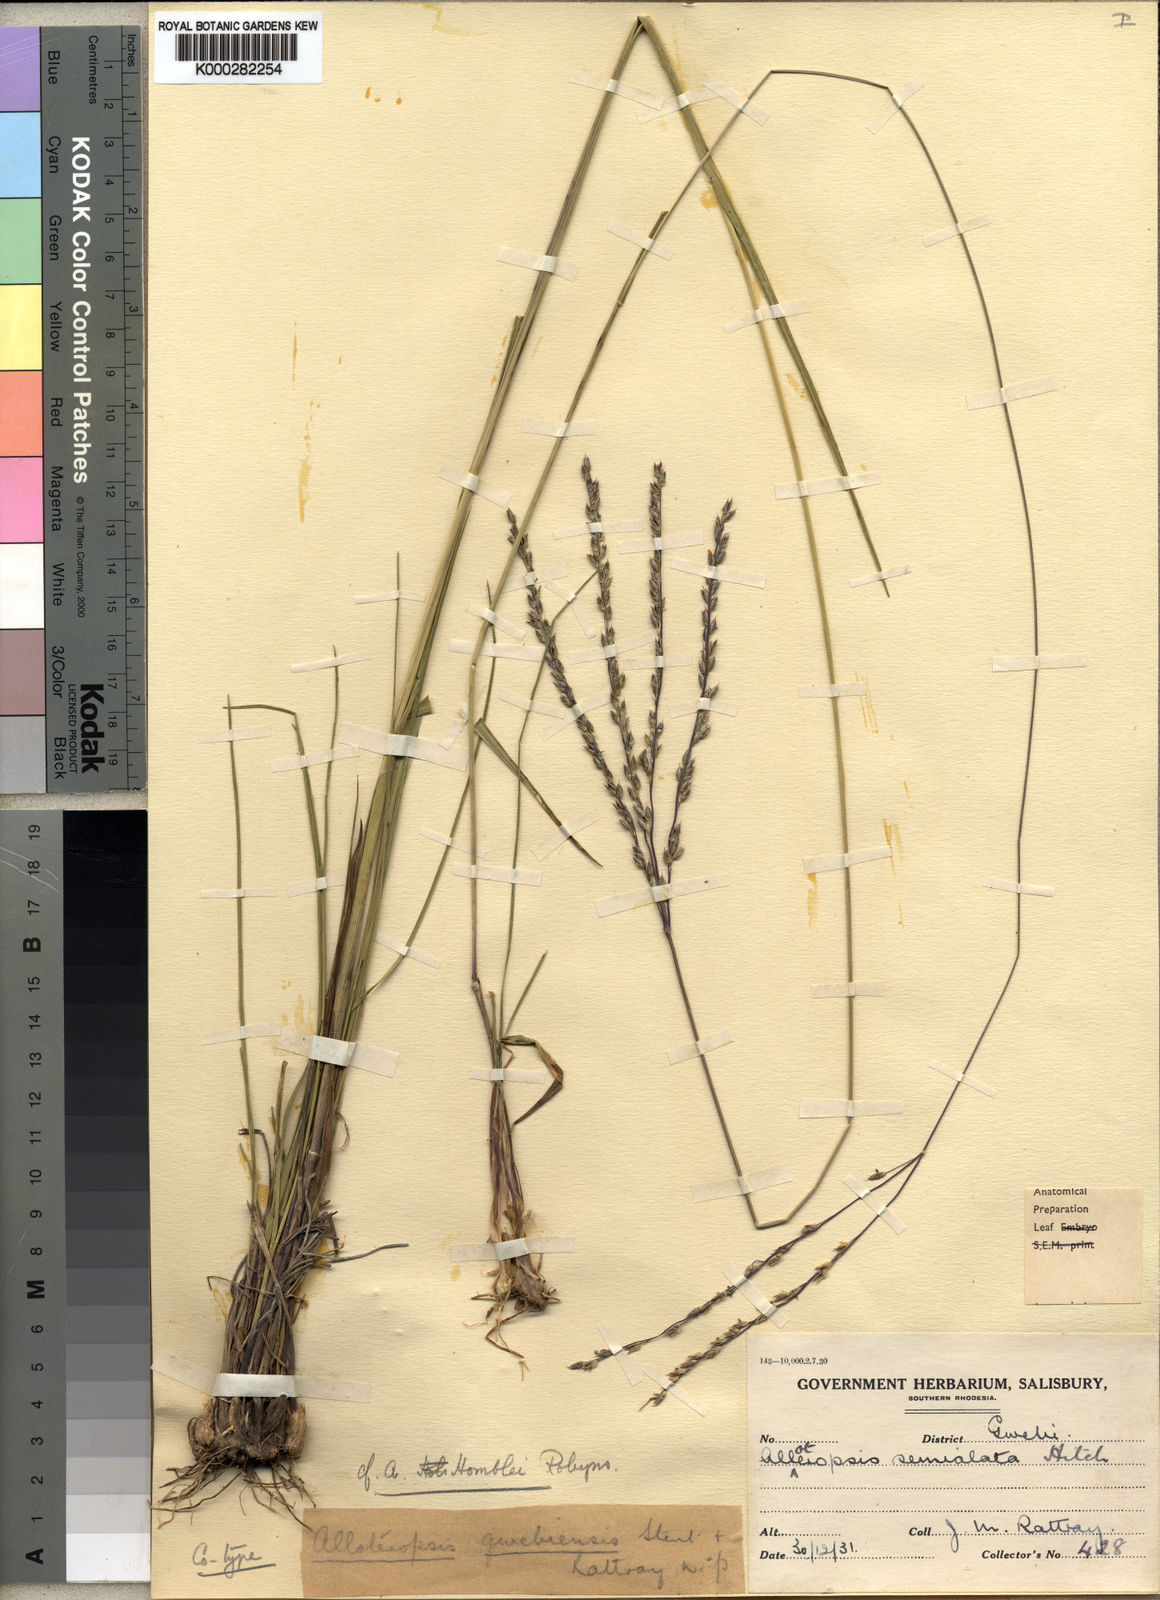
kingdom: Plantae
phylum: Tracheophyta
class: Liliopsida
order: Poales
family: Poaceae
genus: Alloteropsis
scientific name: Alloteropsis semialata
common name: Cockatoo grass
